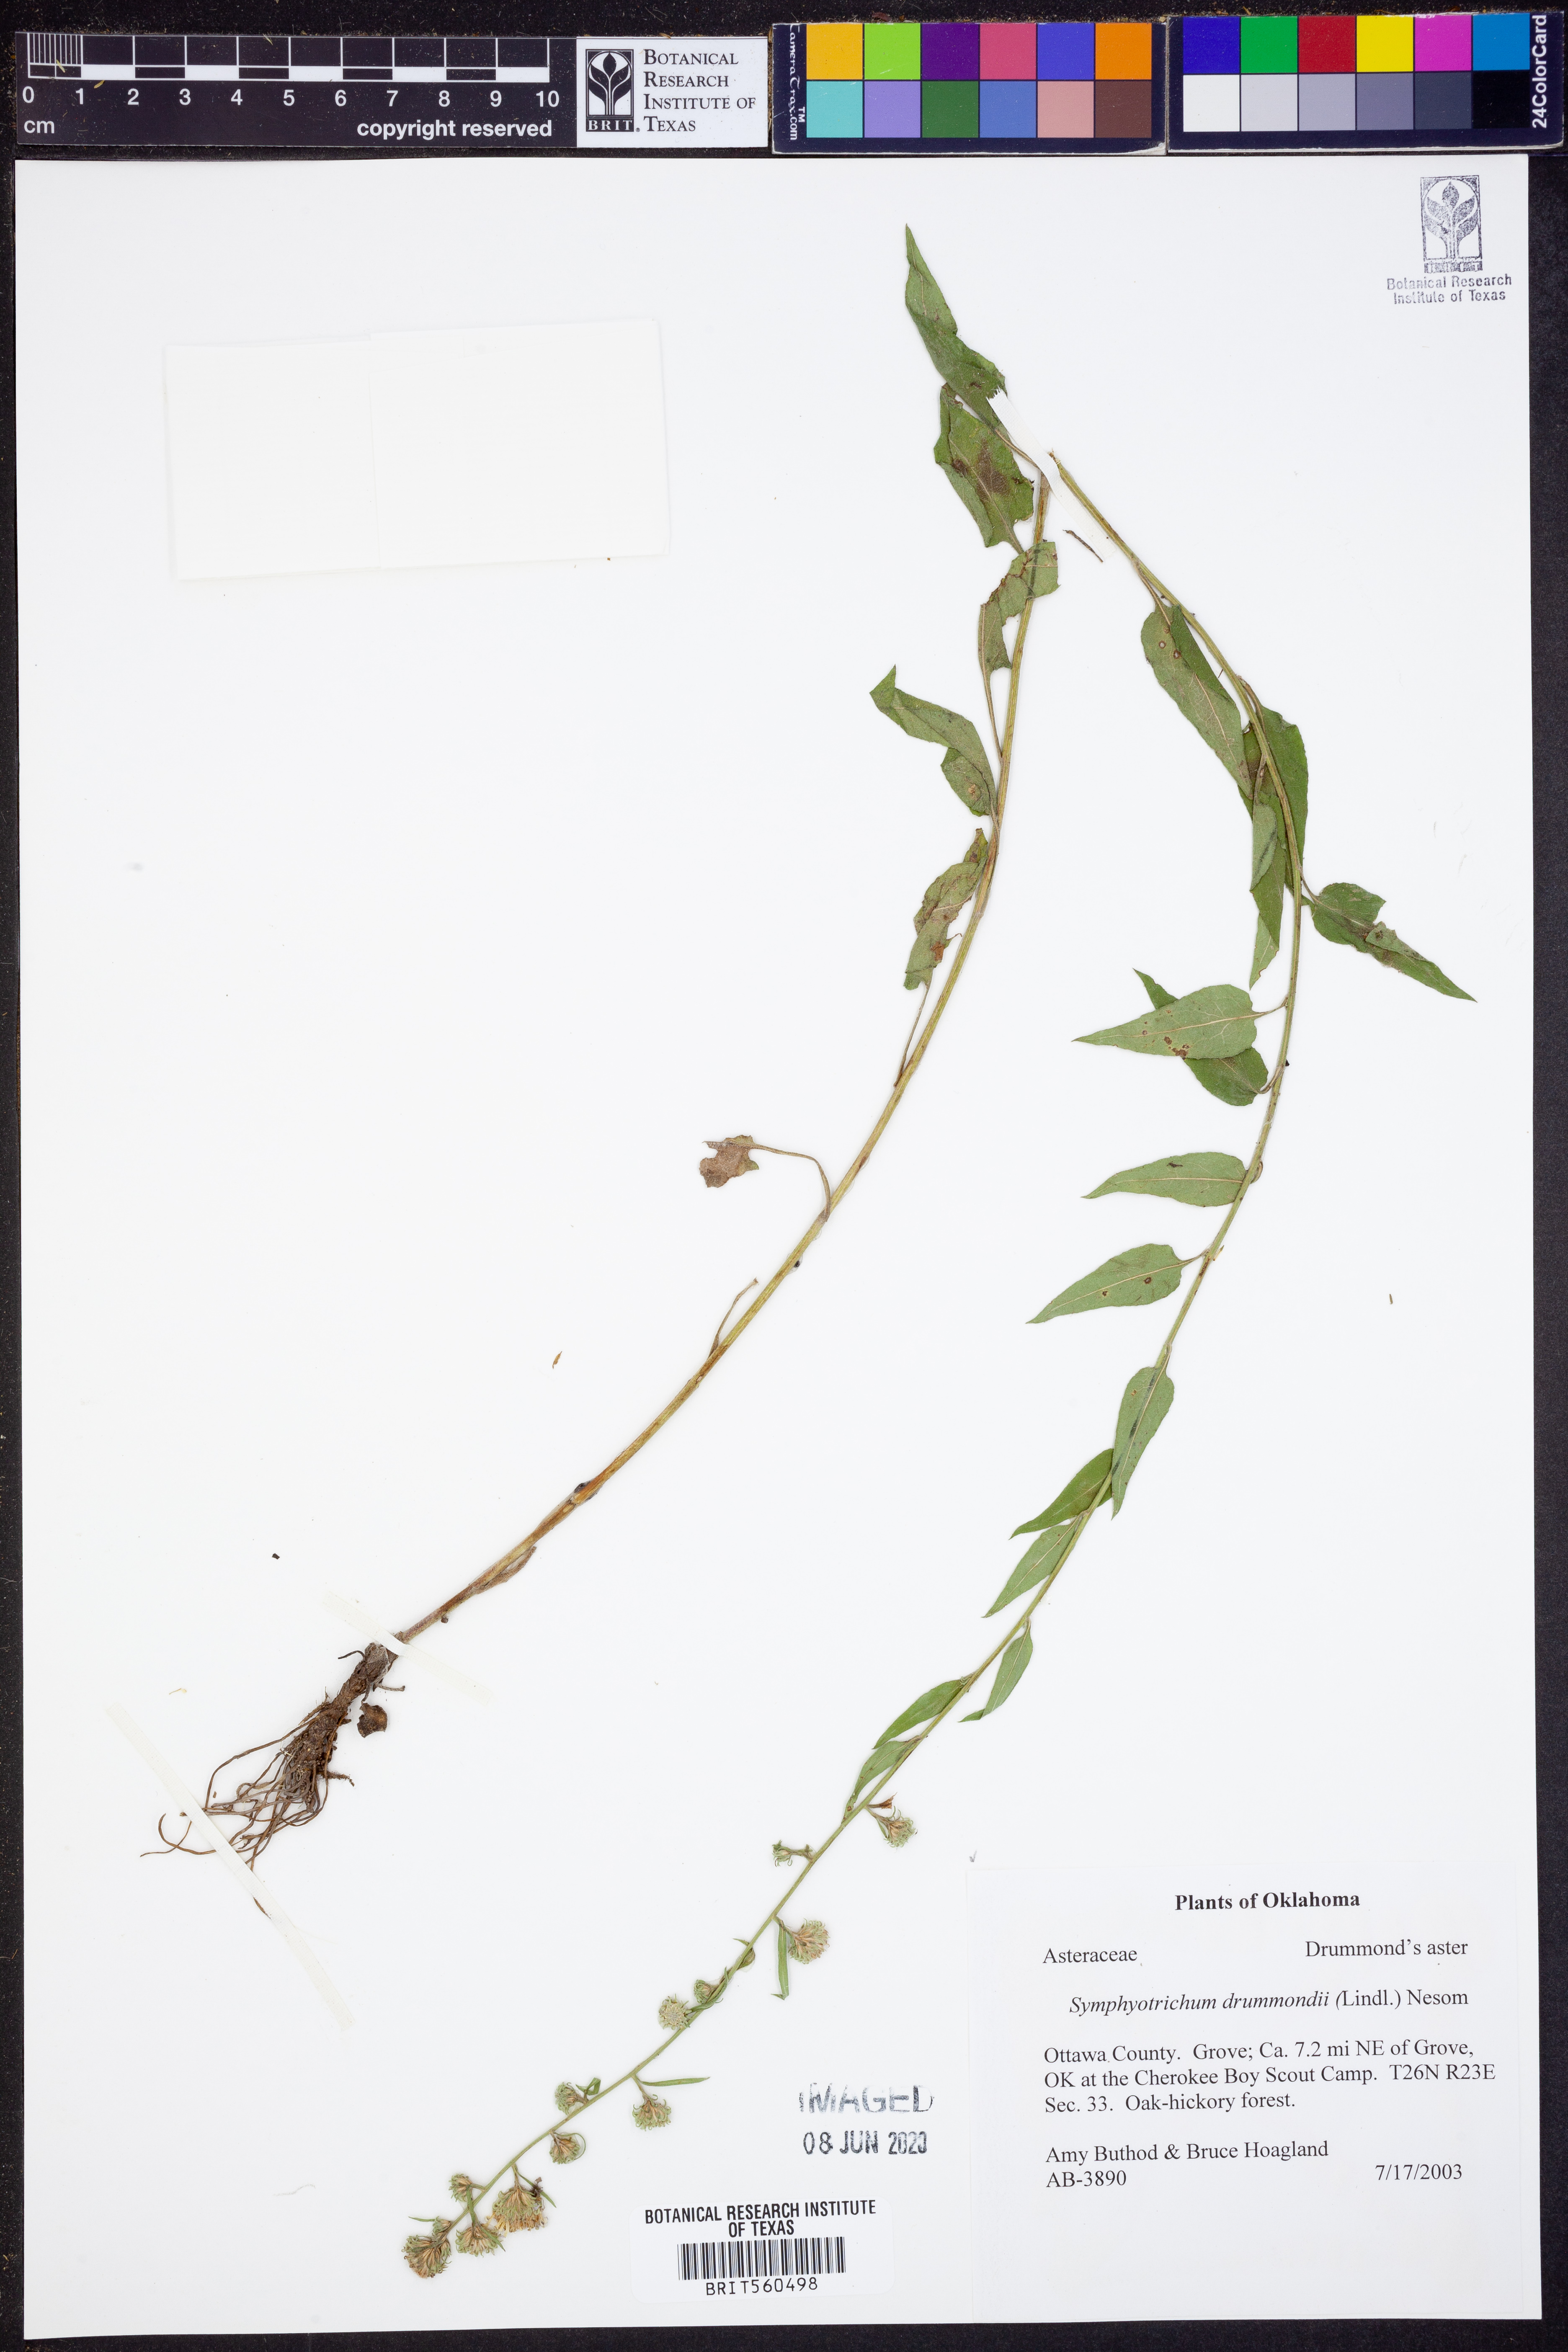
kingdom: Plantae
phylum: Tracheophyta
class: Magnoliopsida
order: Asterales
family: Asteraceae
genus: Symphyotrichum
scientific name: Symphyotrichum drummondii
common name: Drummond's aster
